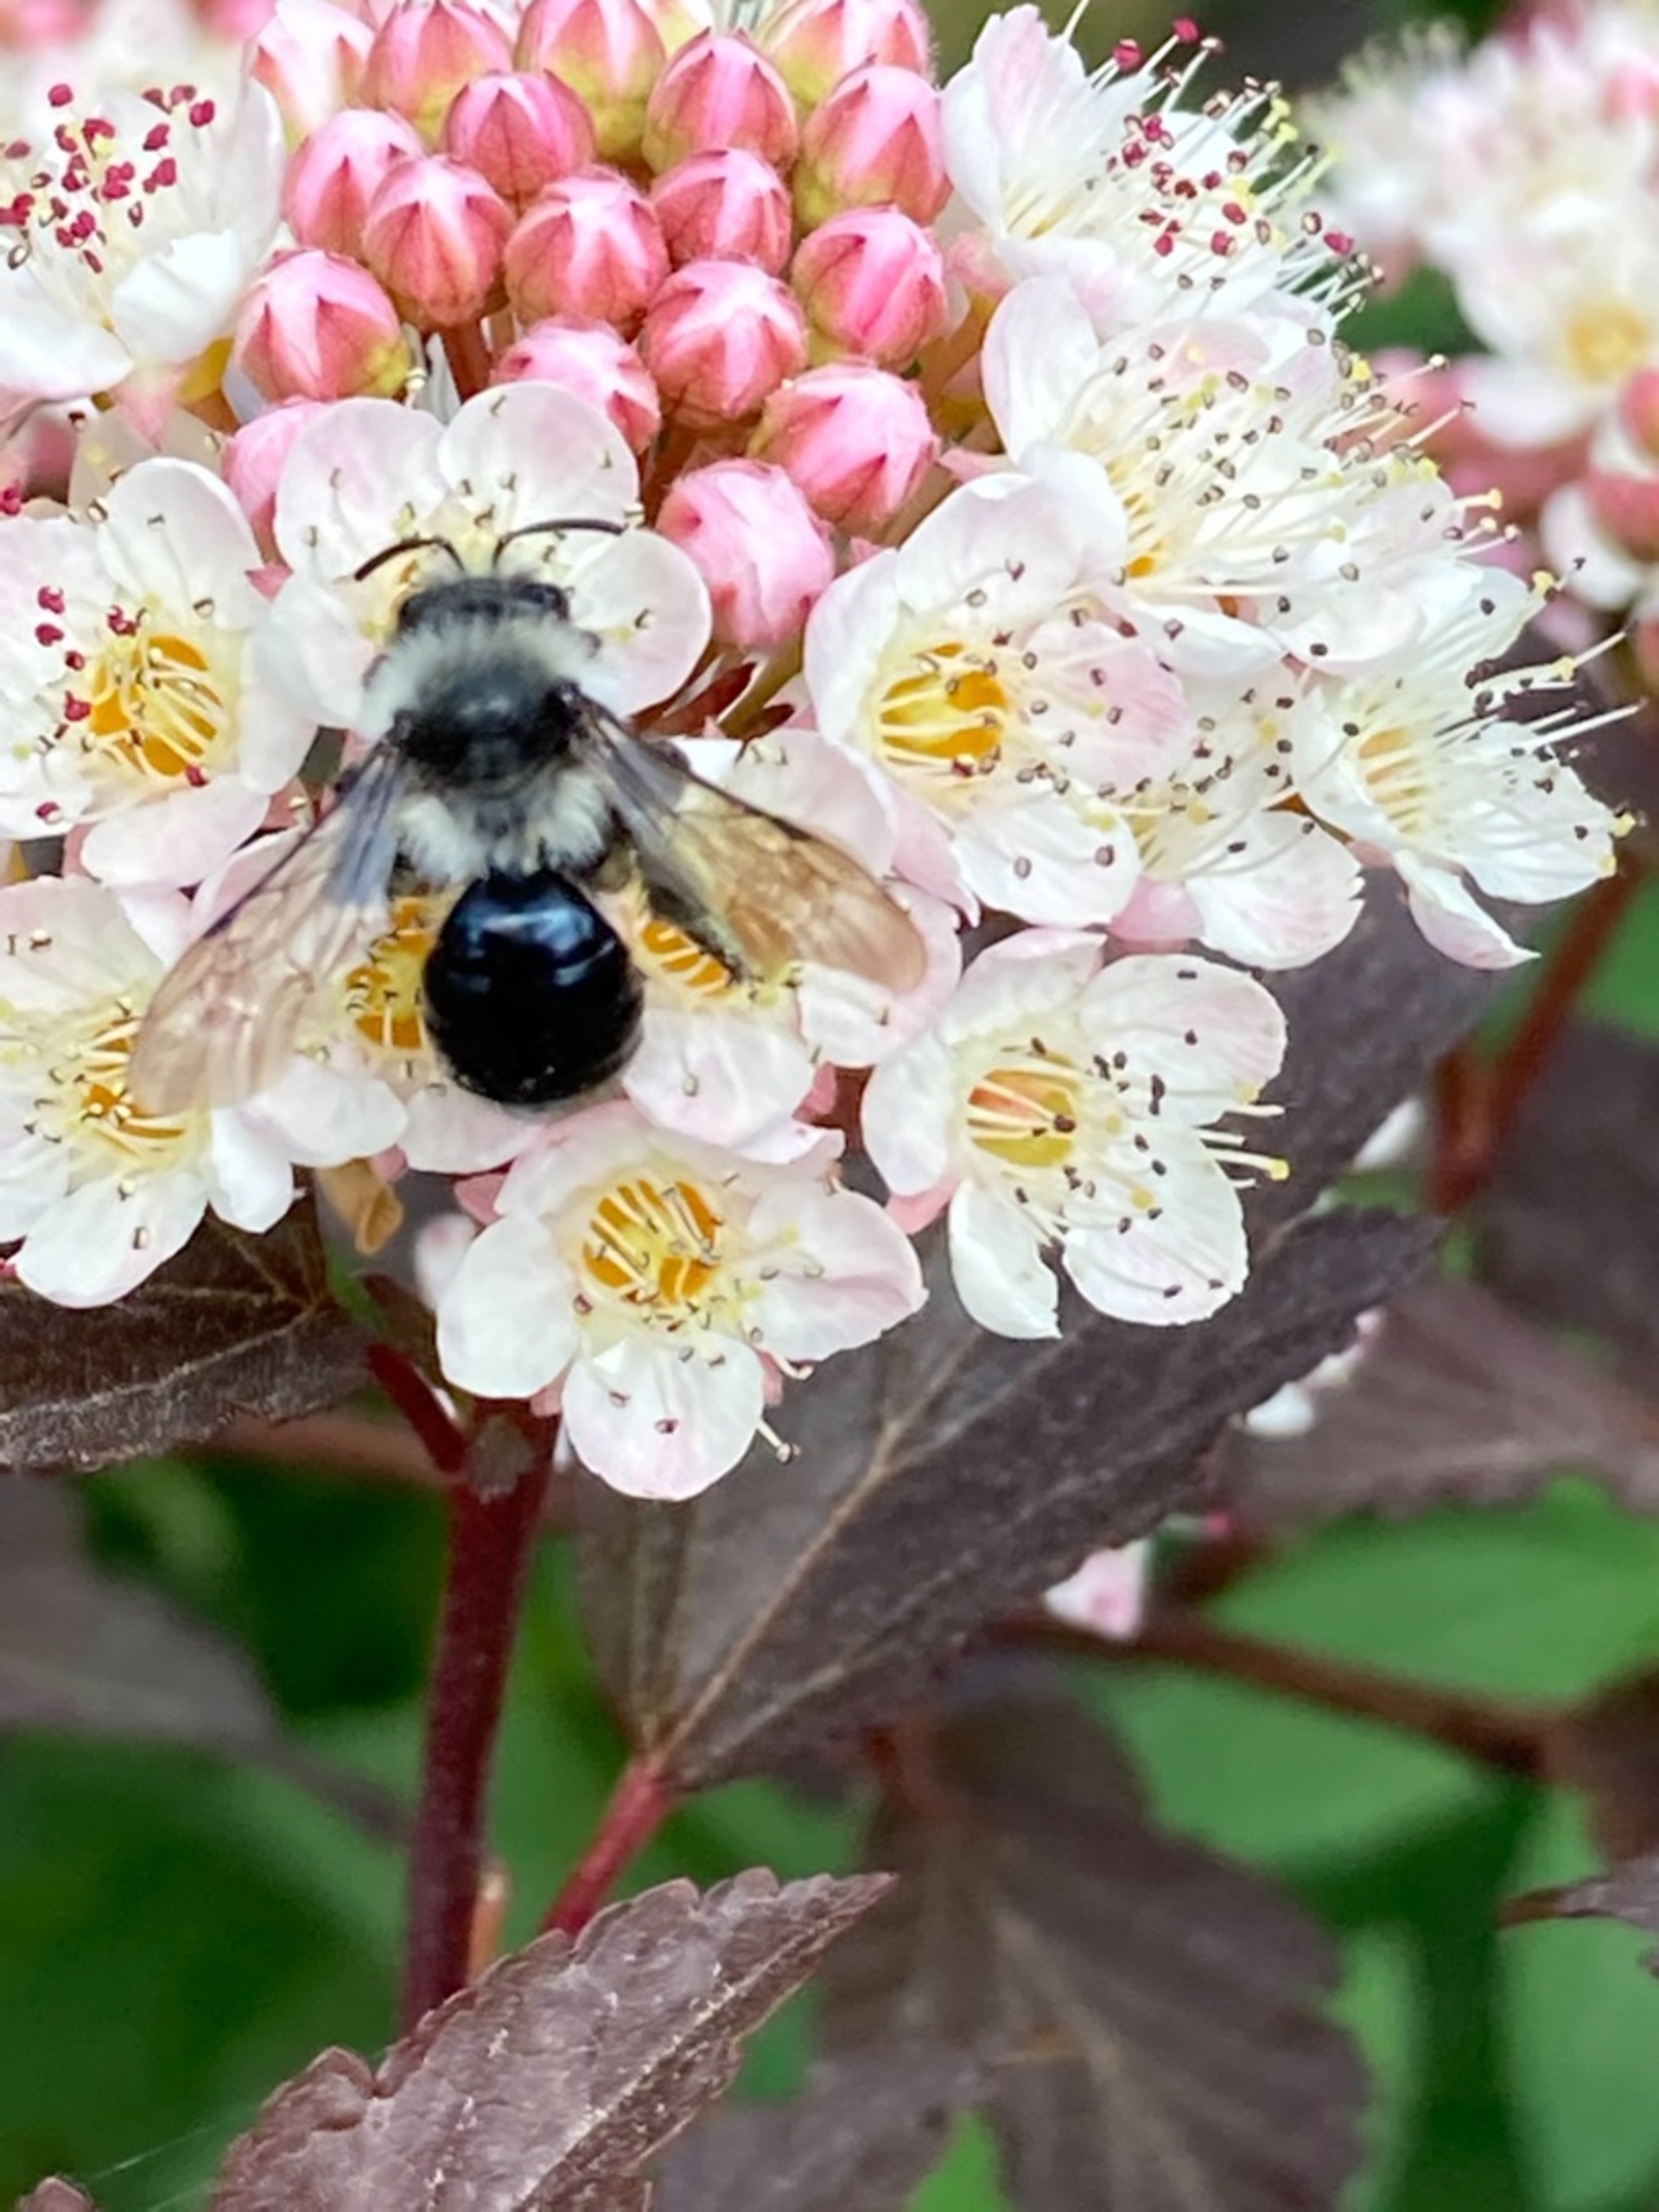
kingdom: Animalia
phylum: Arthropoda
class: Insecta
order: Hymenoptera
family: Andrenidae
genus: Andrena
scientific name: Andrena cineraria
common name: Sorthvid jordbi
